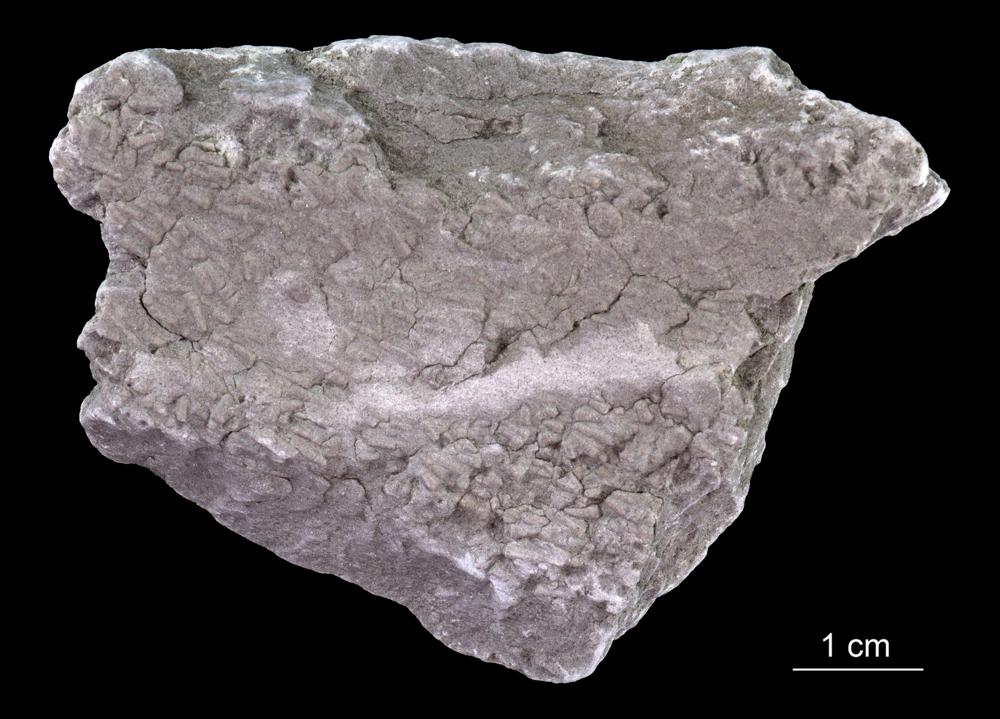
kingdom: Animalia
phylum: Annelida
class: Polychaeta
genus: Volborthella
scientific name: Volborthella tenuis
